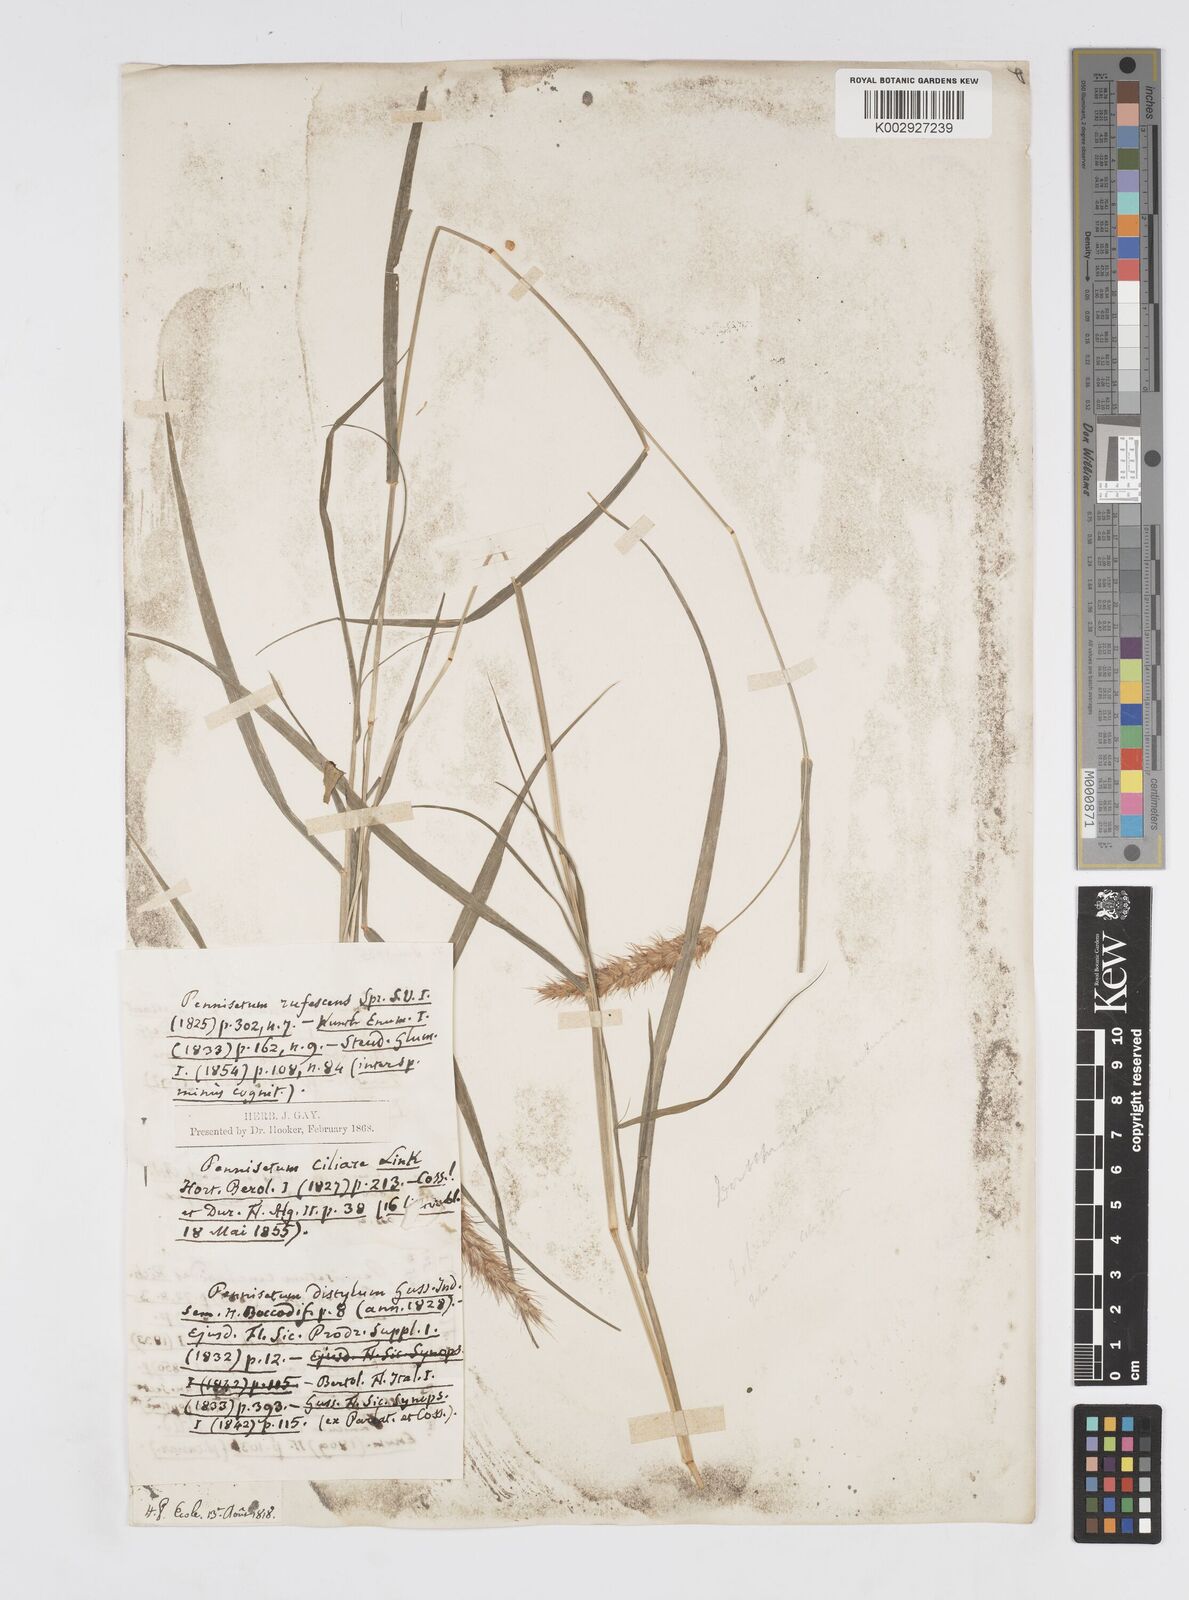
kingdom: Plantae
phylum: Tracheophyta
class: Liliopsida
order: Poales
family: Poaceae
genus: Cenchrus
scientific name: Cenchrus ciliaris
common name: Buffelgrass
